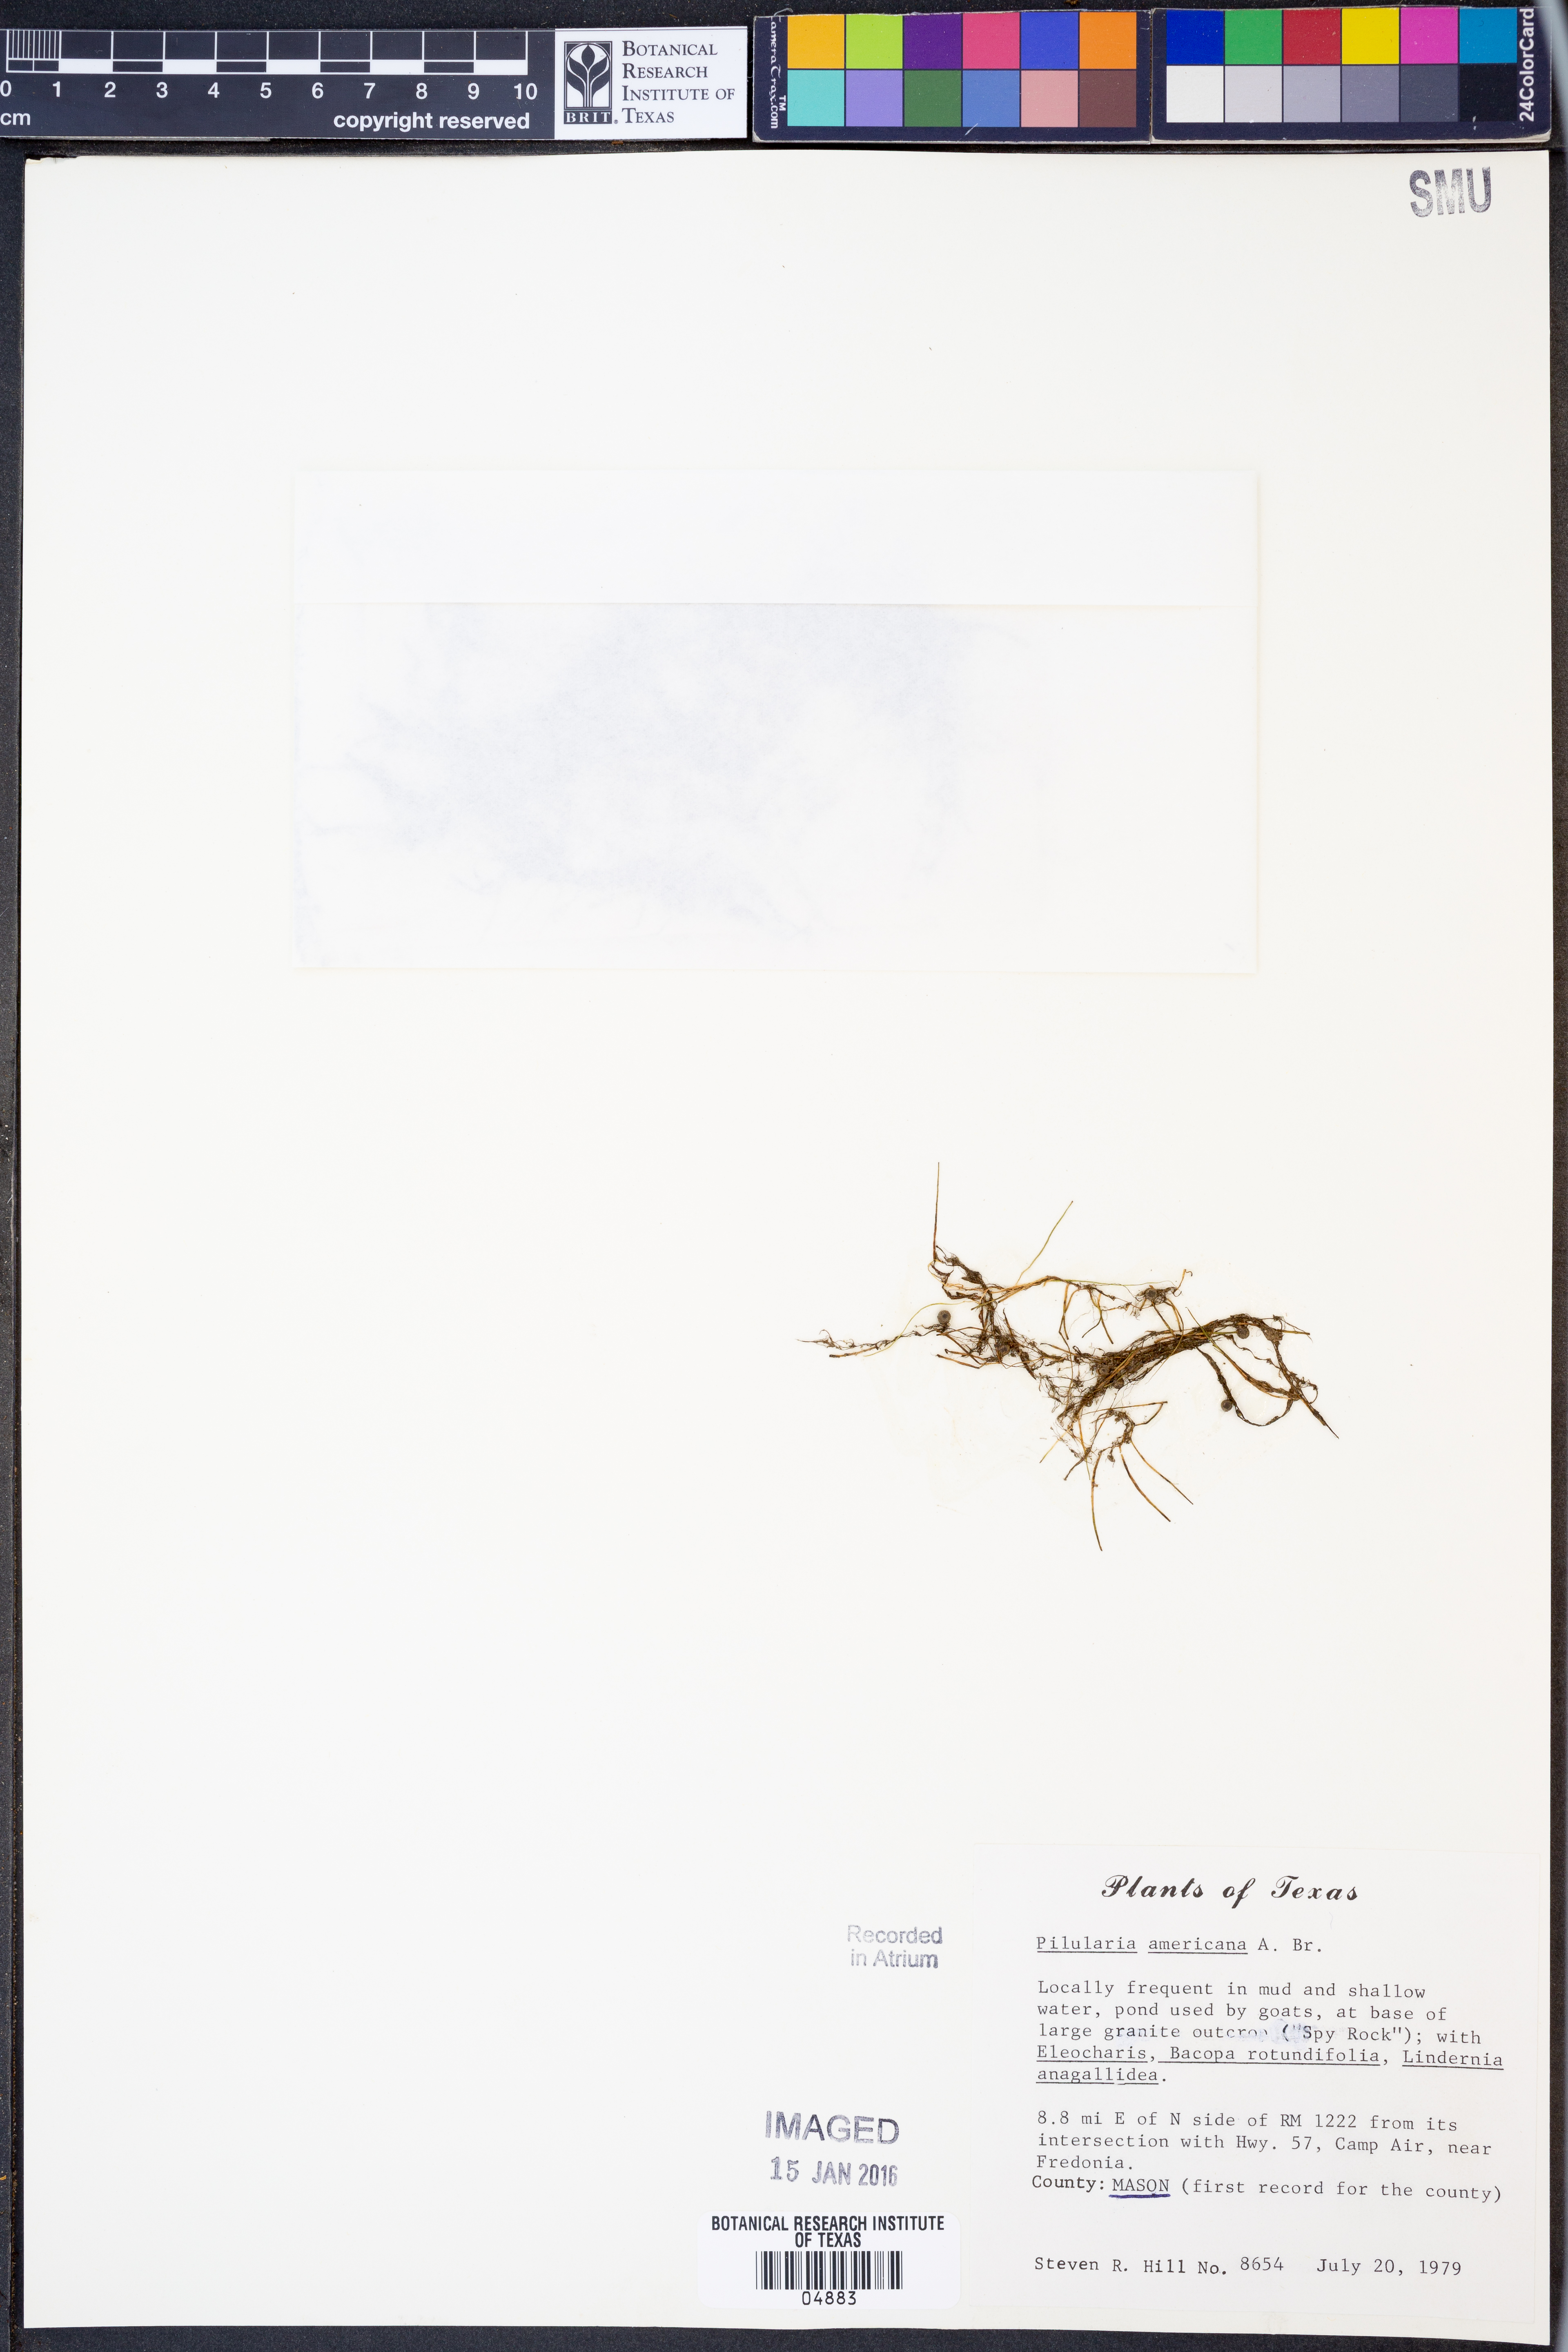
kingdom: Plantae
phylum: Tracheophyta
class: Polypodiopsida
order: Salviniales
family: Marsileaceae
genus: Pilularia
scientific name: Pilularia americana
